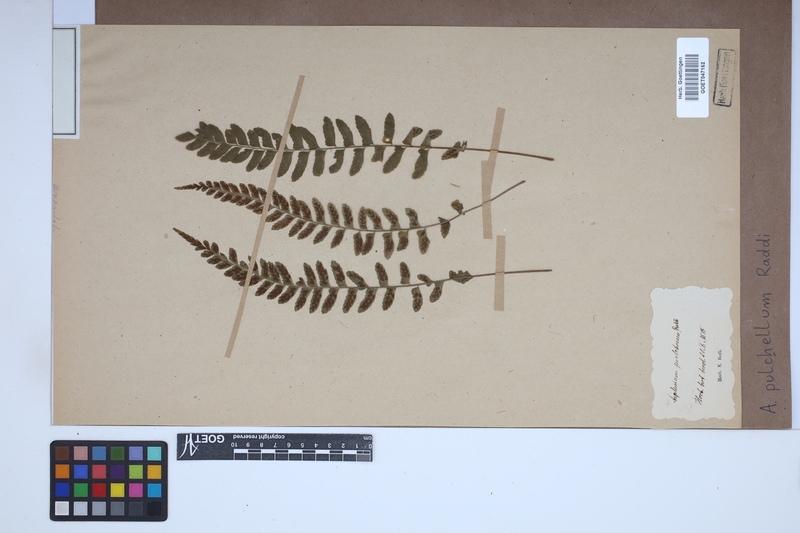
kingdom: Plantae
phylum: Tracheophyta
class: Polypodiopsida
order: Polypodiales
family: Aspleniaceae
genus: Asplenium
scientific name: Asplenium pulchellum
